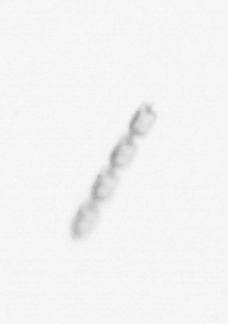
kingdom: Chromista
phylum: Ochrophyta
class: Bacillariophyceae
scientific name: Bacillariophyceae
